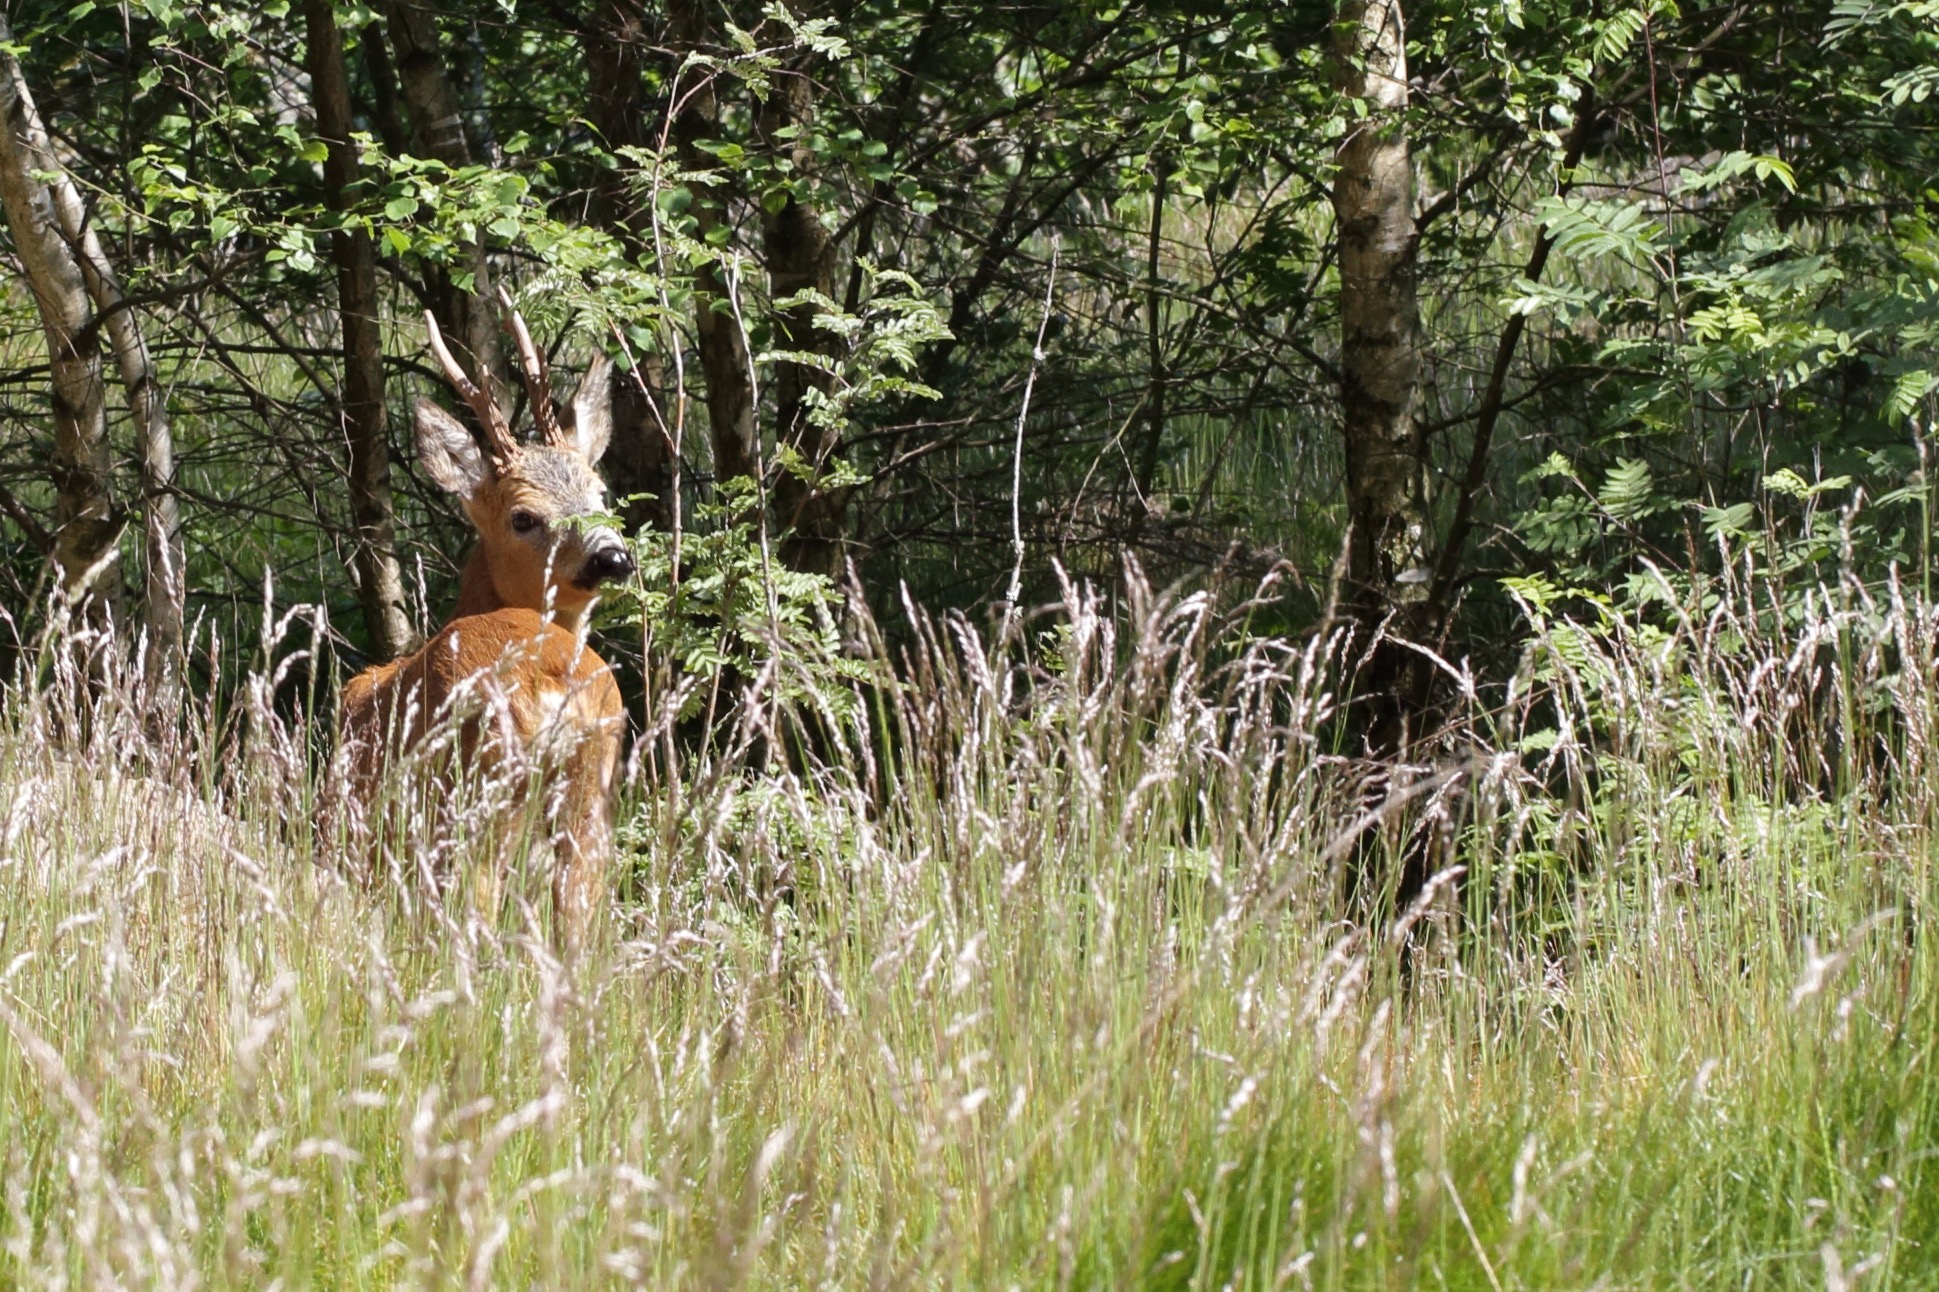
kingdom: Animalia
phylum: Chordata
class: Mammalia
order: Artiodactyla
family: Cervidae
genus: Capreolus
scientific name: Capreolus capreolus
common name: Rådyr
